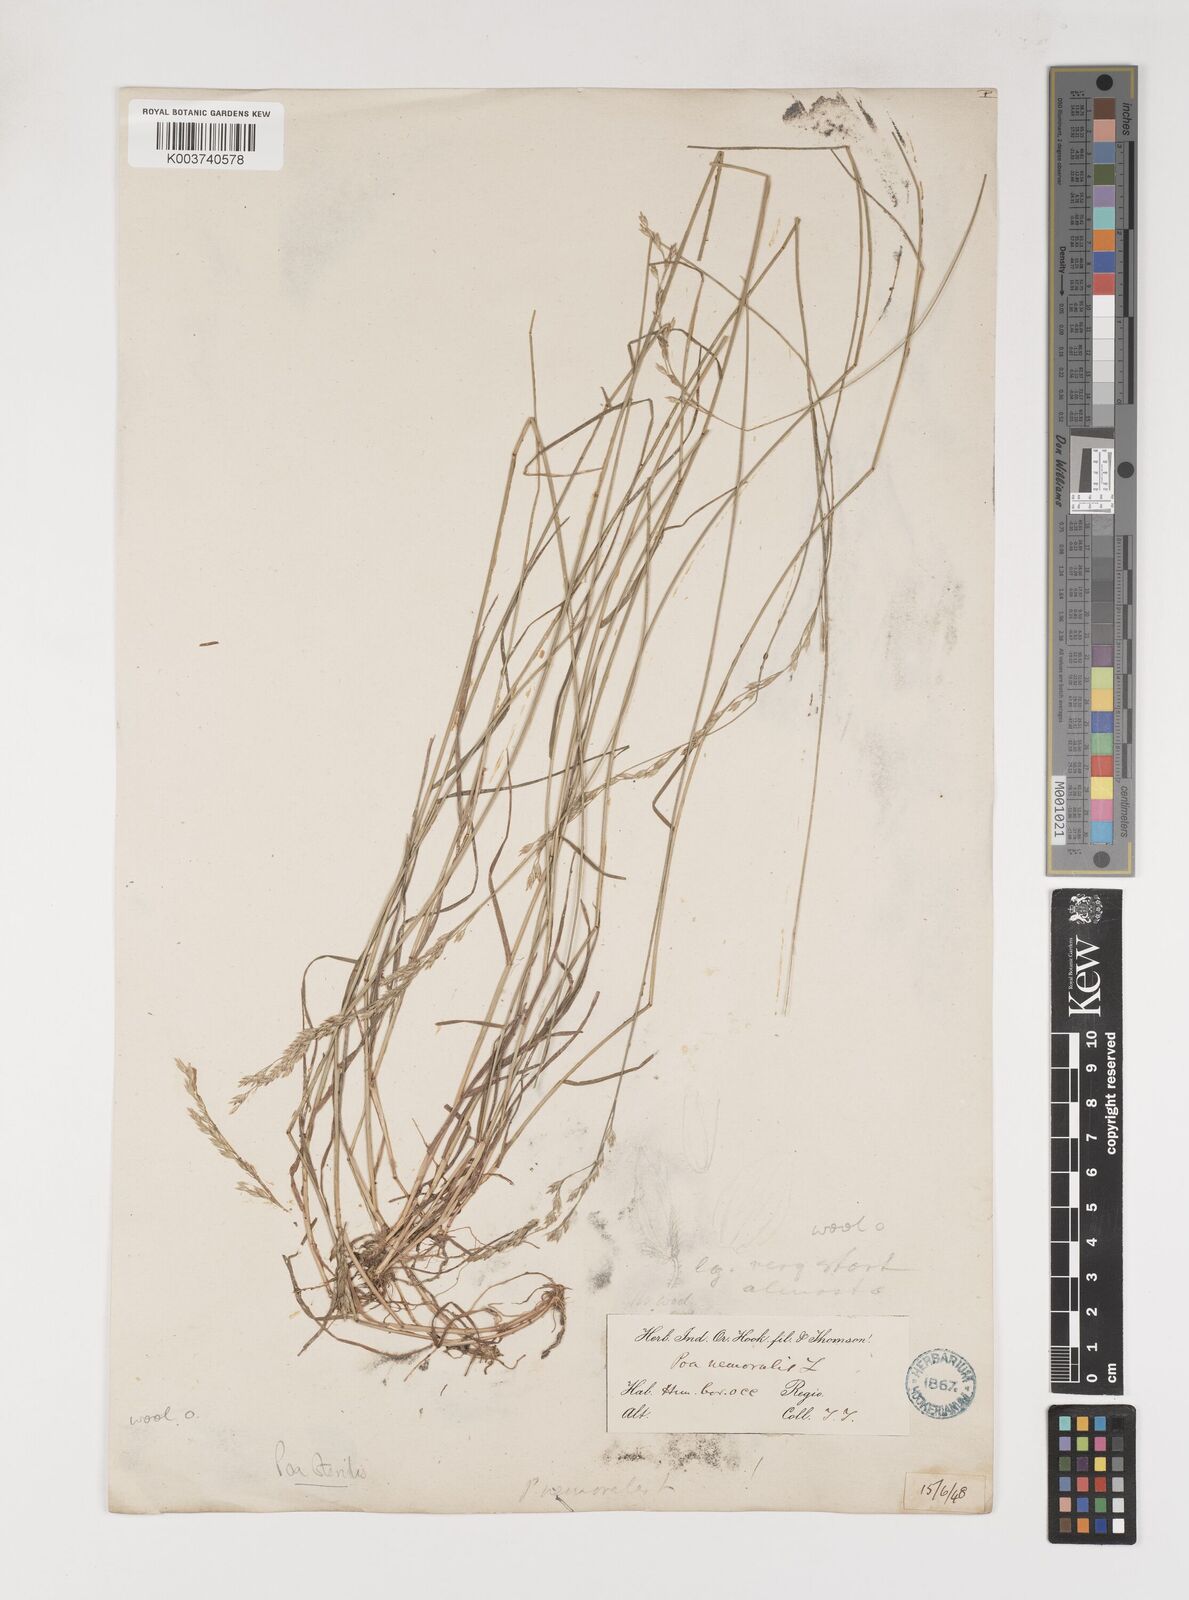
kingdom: Plantae
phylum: Tracheophyta
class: Liliopsida
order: Poales
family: Poaceae
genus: Poa
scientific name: Poa sterilis
